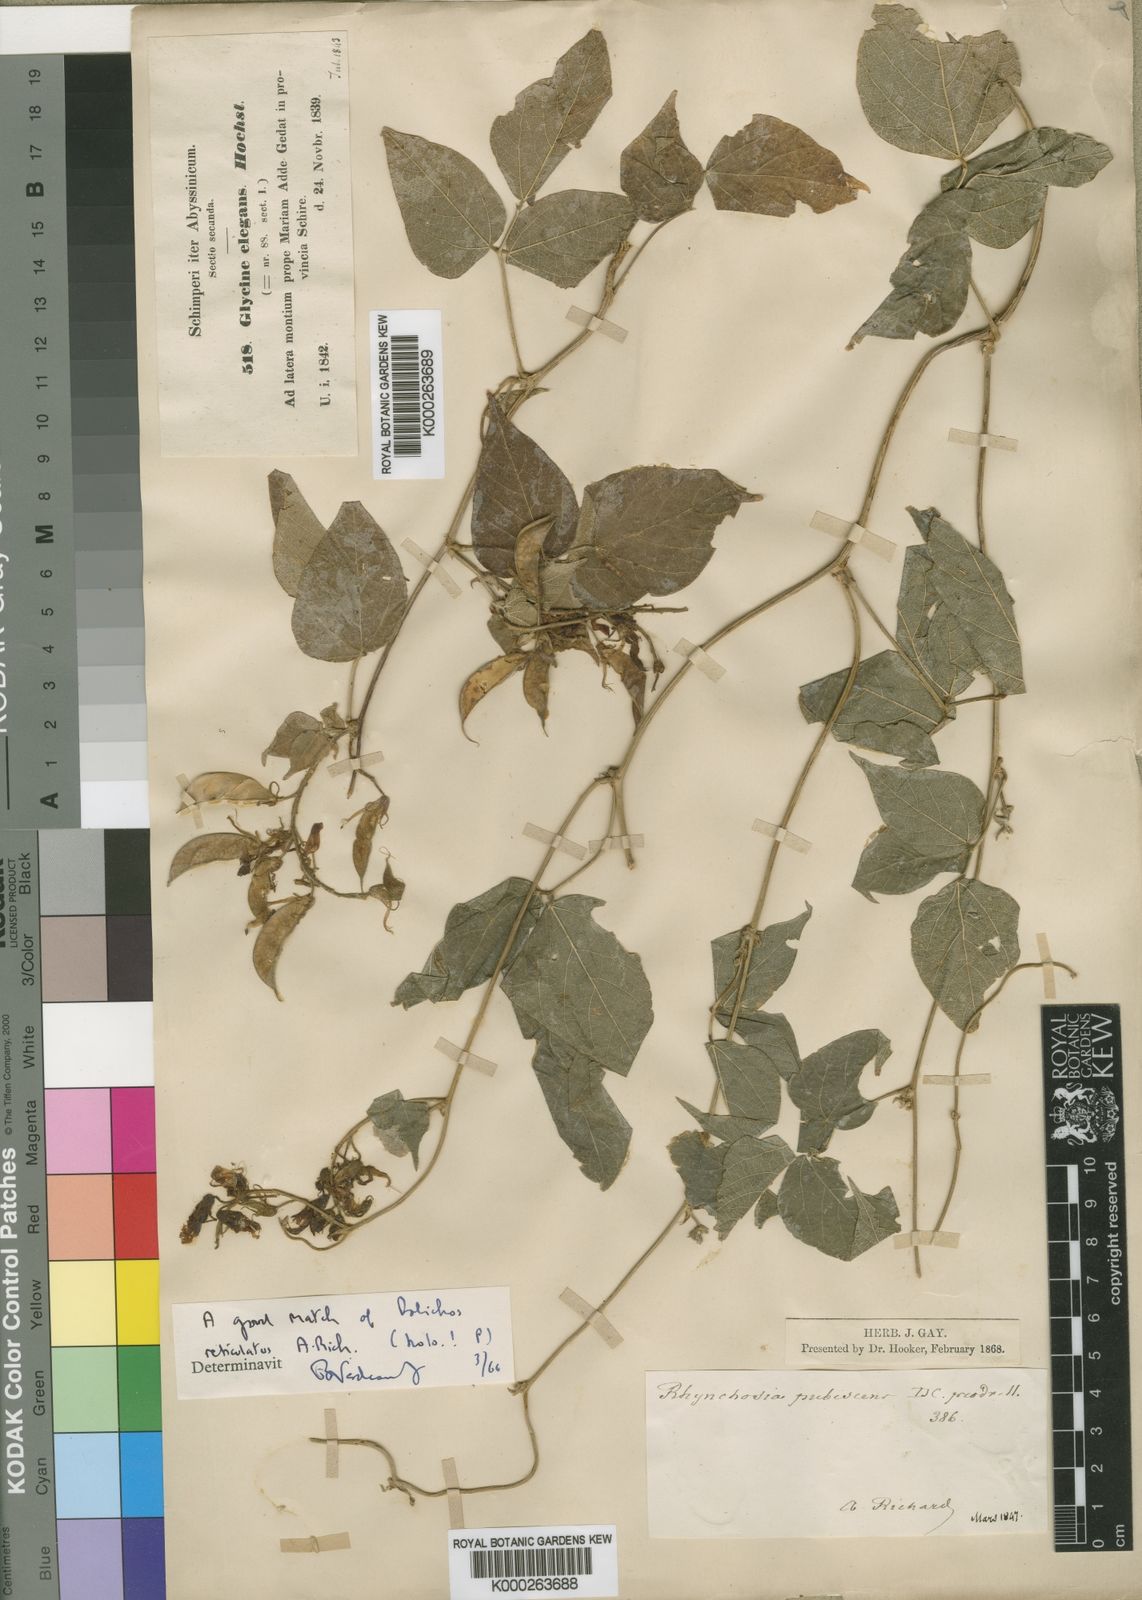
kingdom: Plantae
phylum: Tracheophyta
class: Magnoliopsida
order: Fabales
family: Fabaceae
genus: Rhynchosia
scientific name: Rhynchosia elegans
